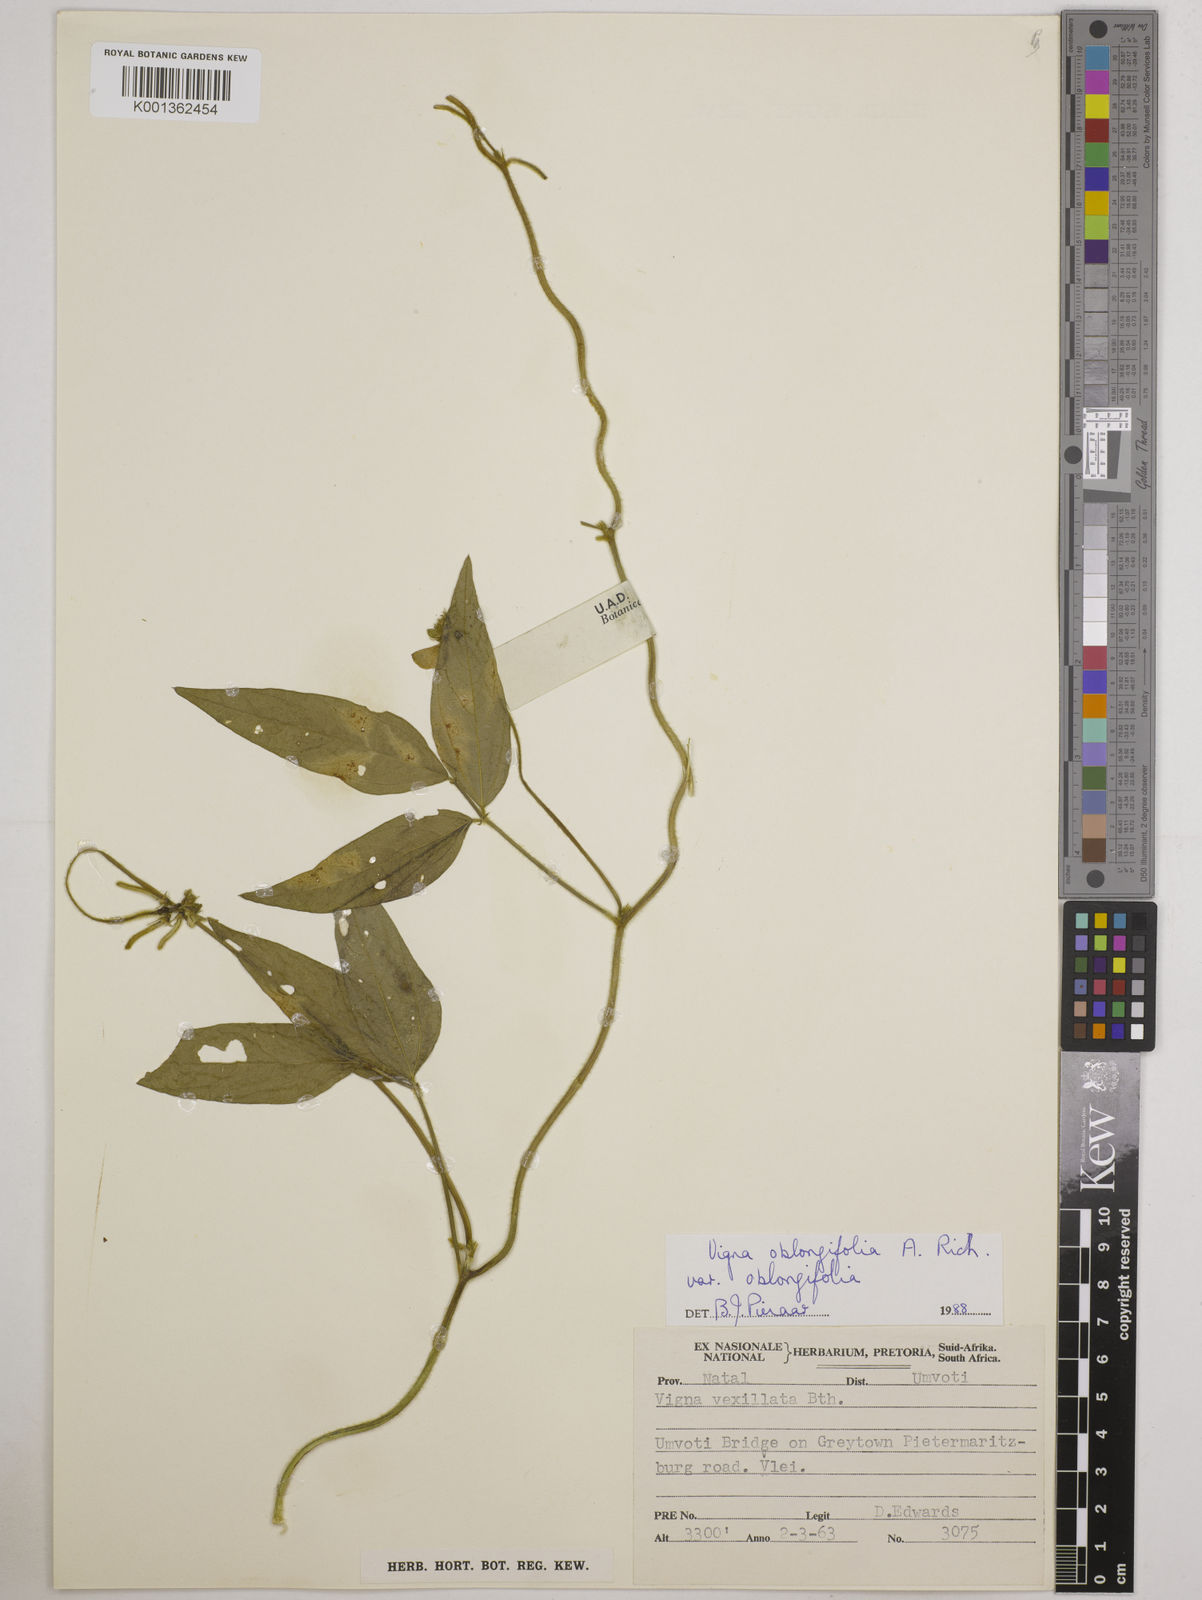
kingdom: Plantae
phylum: Tracheophyta
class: Magnoliopsida
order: Fabales
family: Fabaceae
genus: Vigna
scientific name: Vigna oblongifolia
